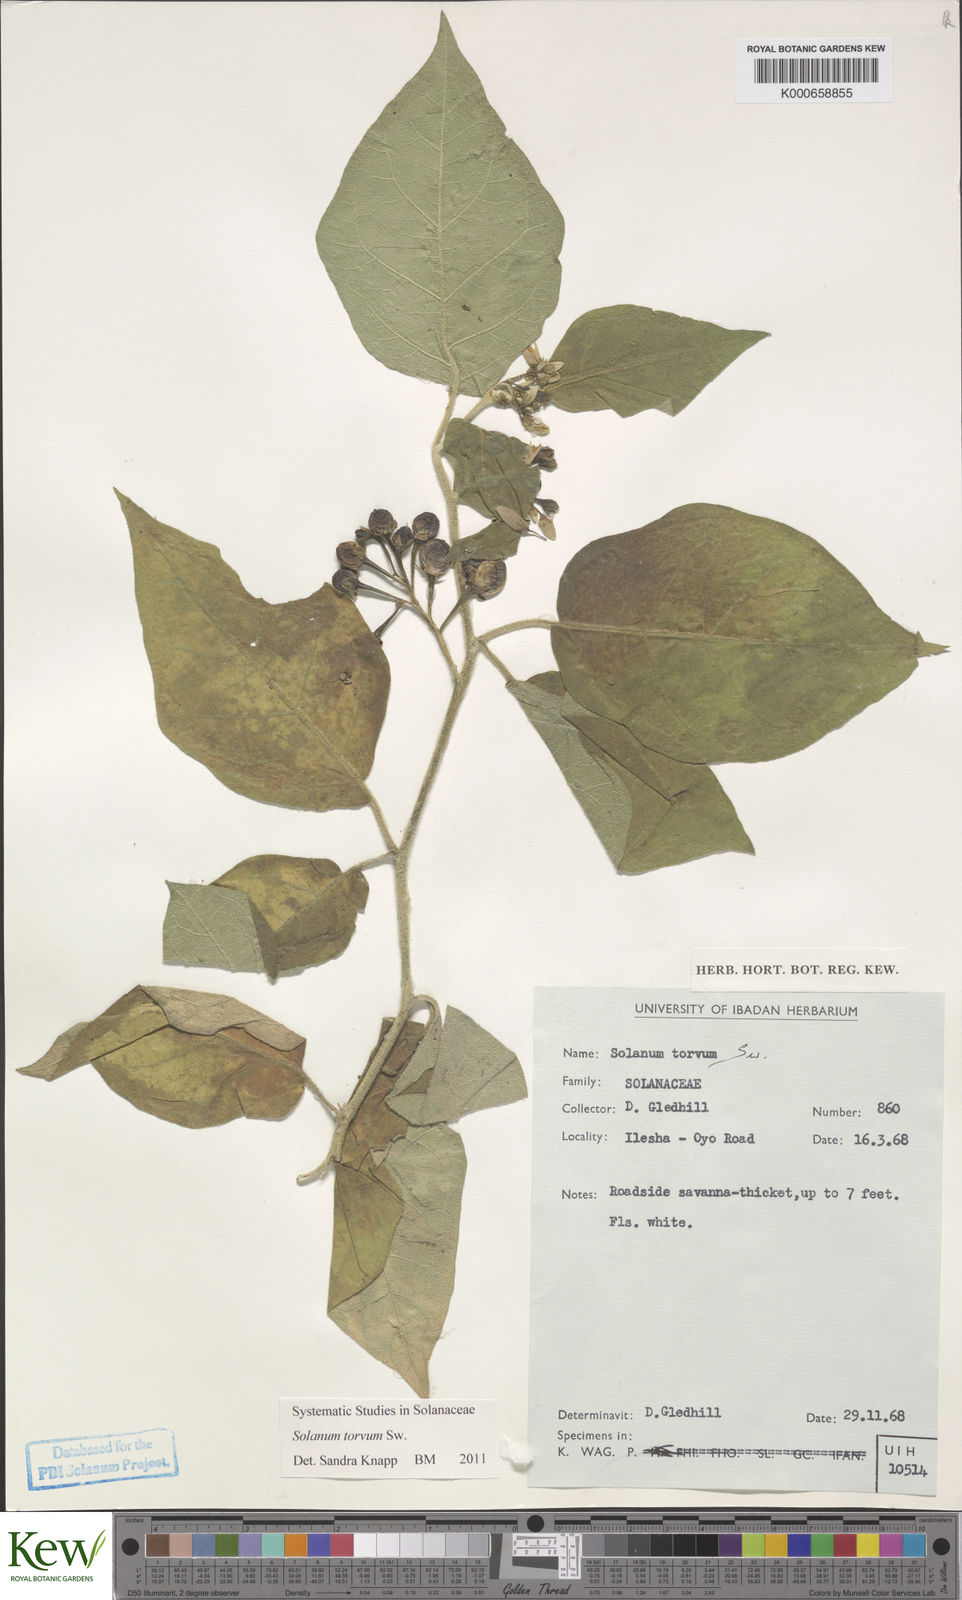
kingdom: Plantae
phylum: Tracheophyta
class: Magnoliopsida
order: Solanales
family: Solanaceae
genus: Solanum
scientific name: Solanum torvum
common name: Turkey berry
